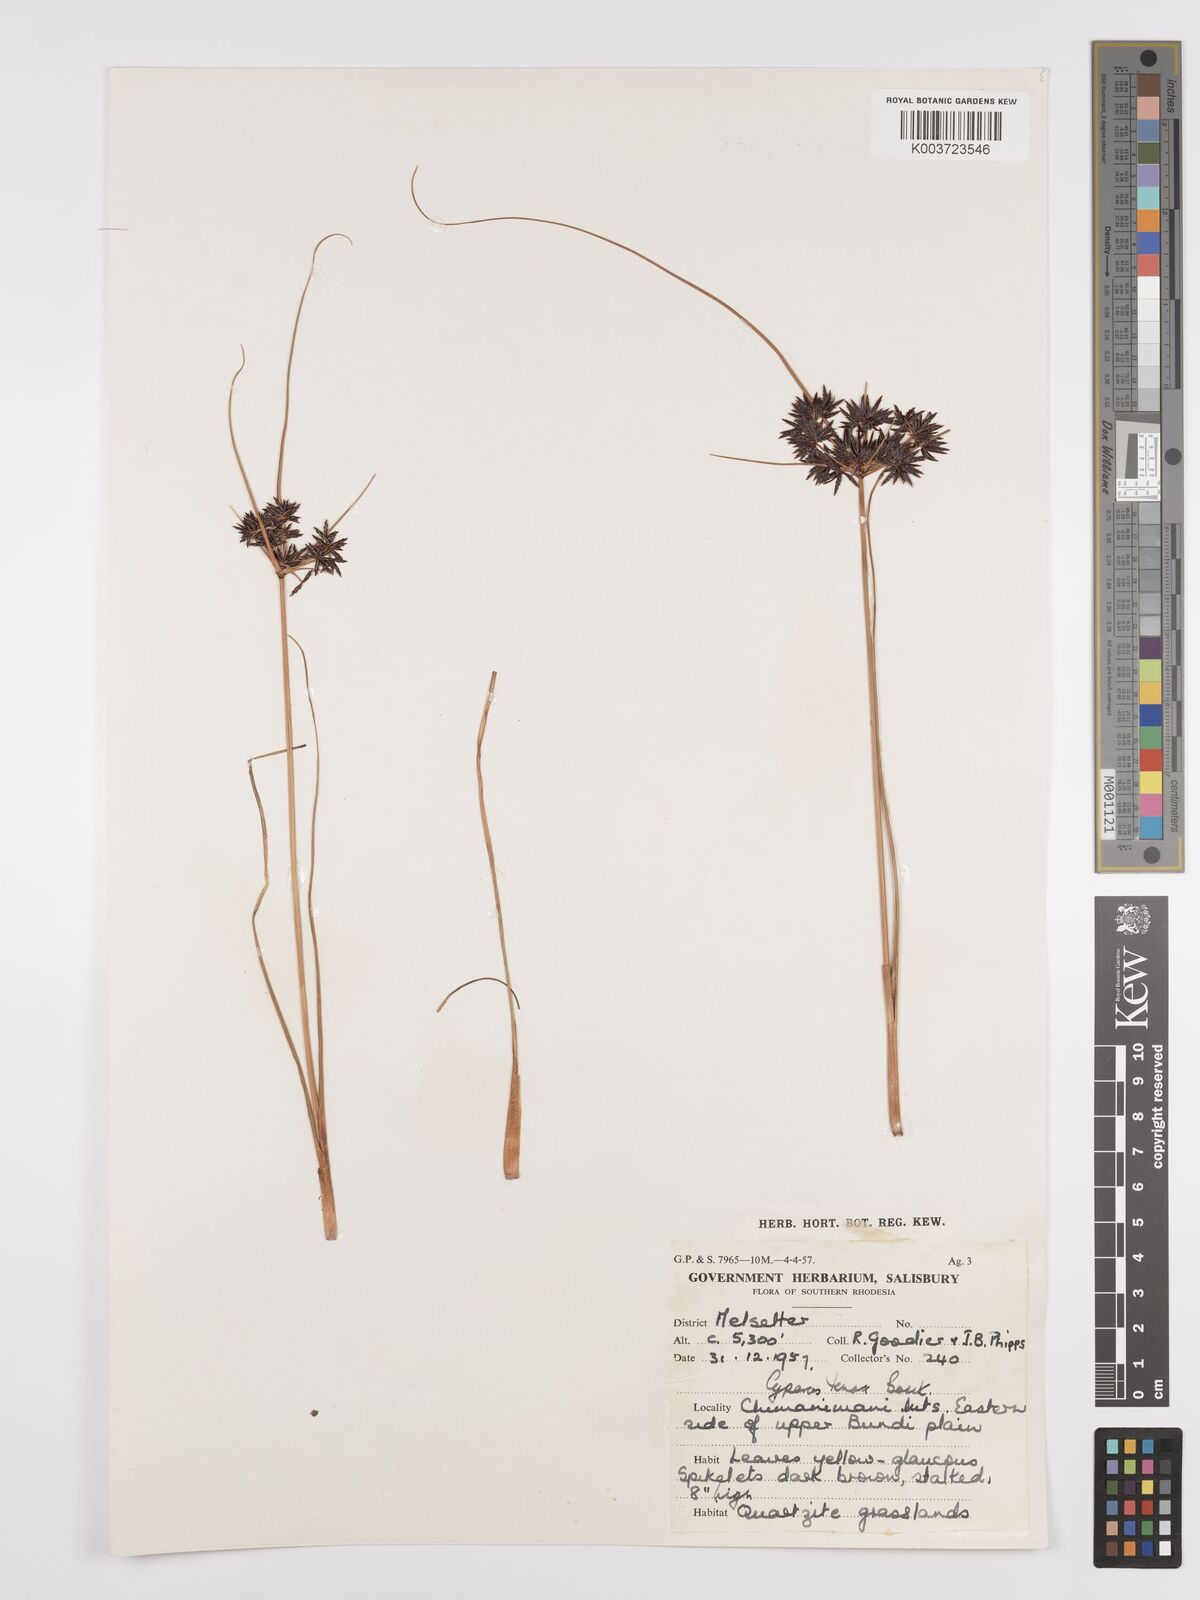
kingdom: Plantae
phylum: Tracheophyta
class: Liliopsida
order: Poales
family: Cyperaceae
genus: Cyperus
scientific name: Cyperus tenax
